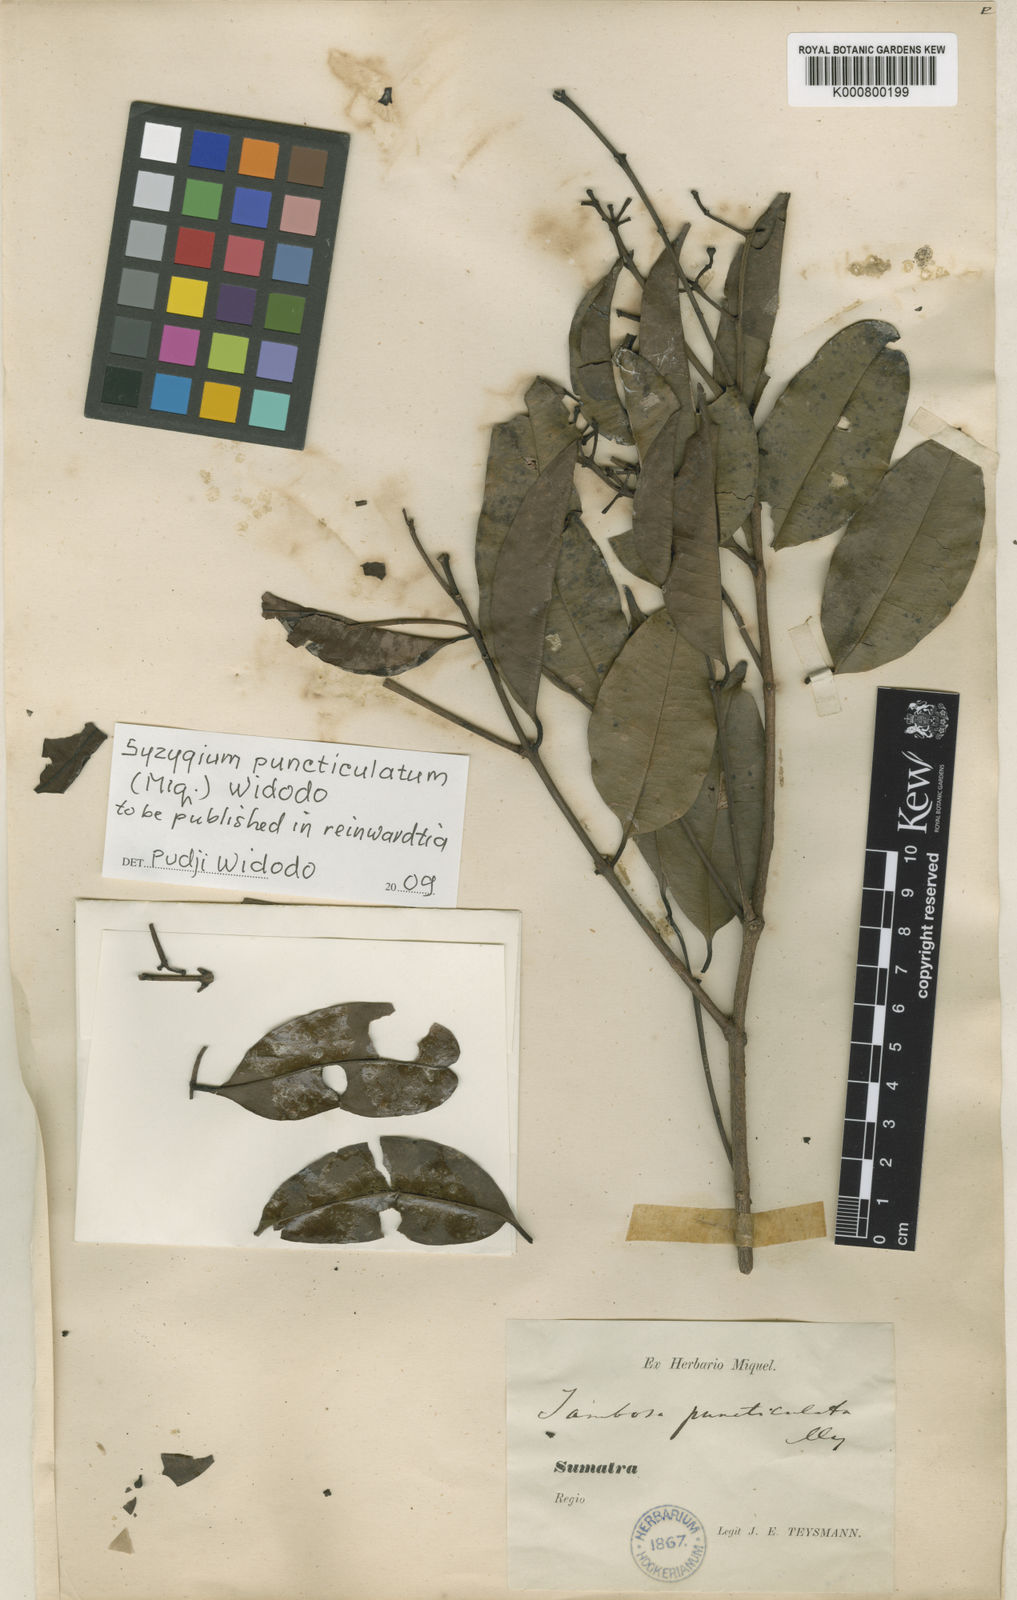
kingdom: Plantae
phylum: Tracheophyta
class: Magnoliopsida
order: Myrtales
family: Myrtaceae
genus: Syzygium
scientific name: Syzygium
